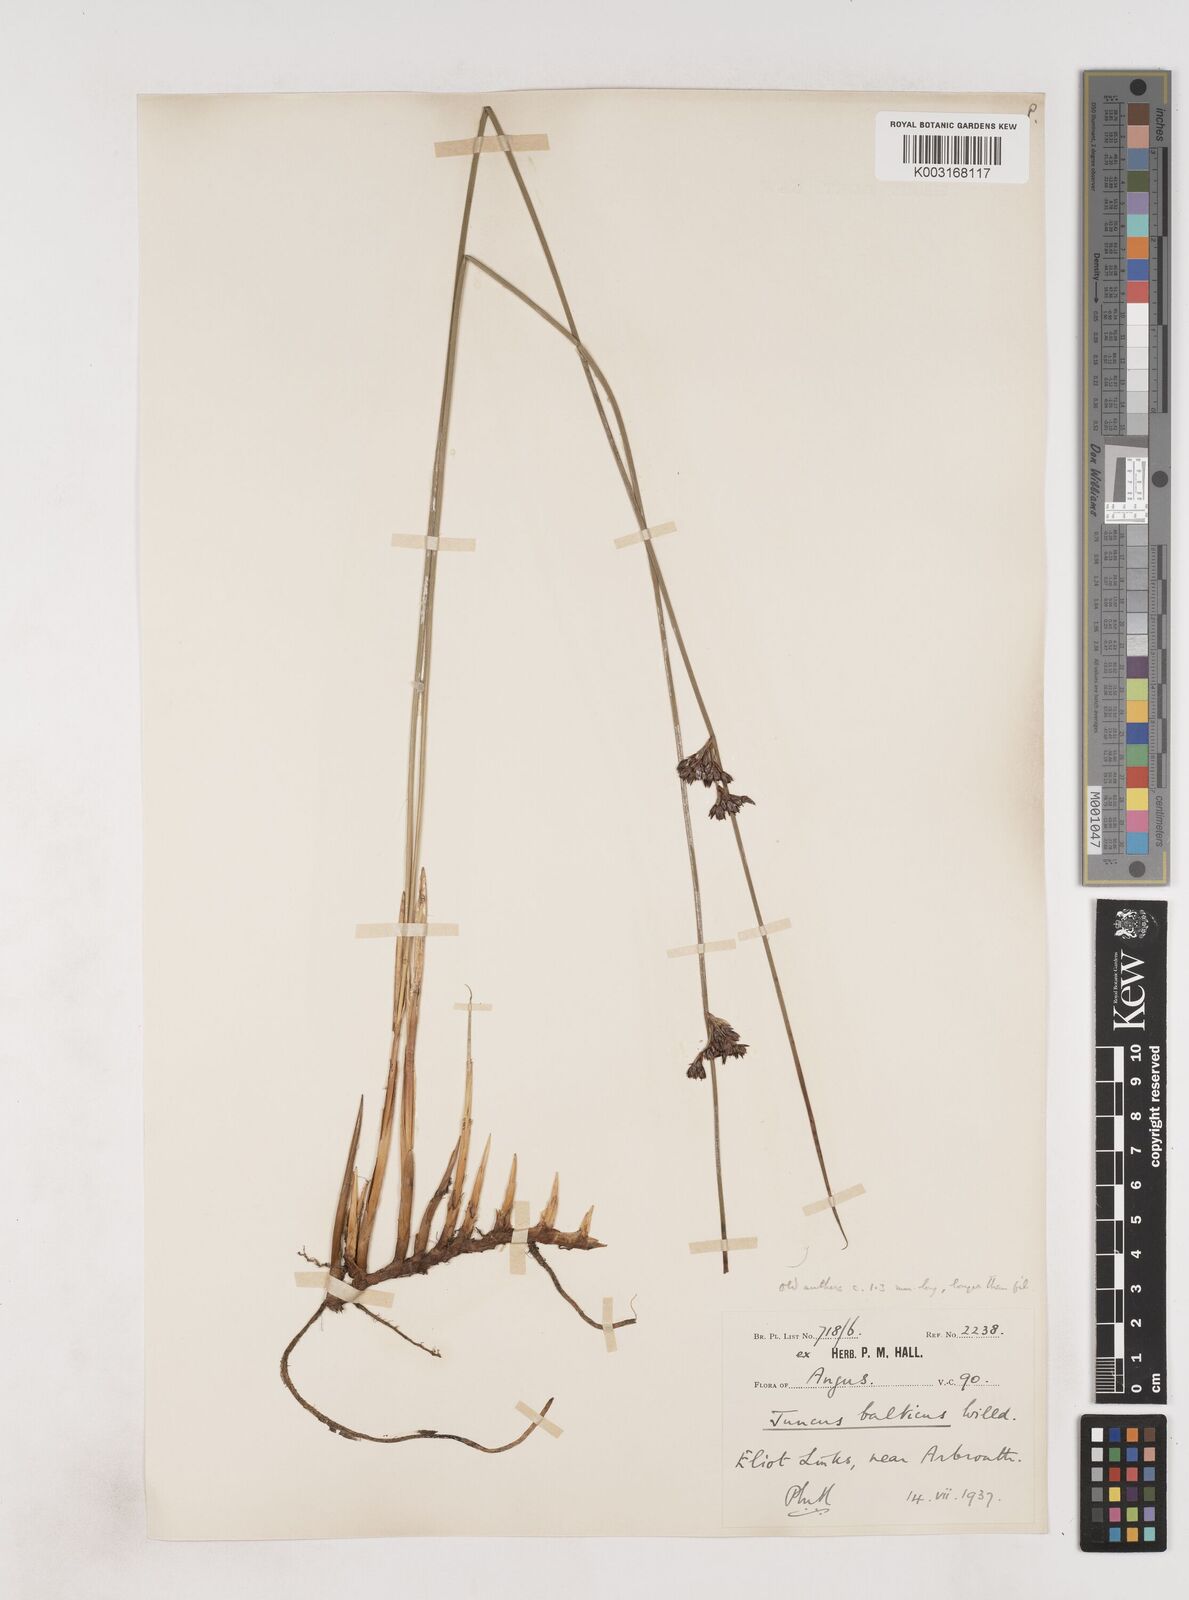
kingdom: Plantae
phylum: Tracheophyta
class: Liliopsida
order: Poales
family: Juncaceae
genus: Juncus
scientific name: Juncus balticus
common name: Baltic rush
